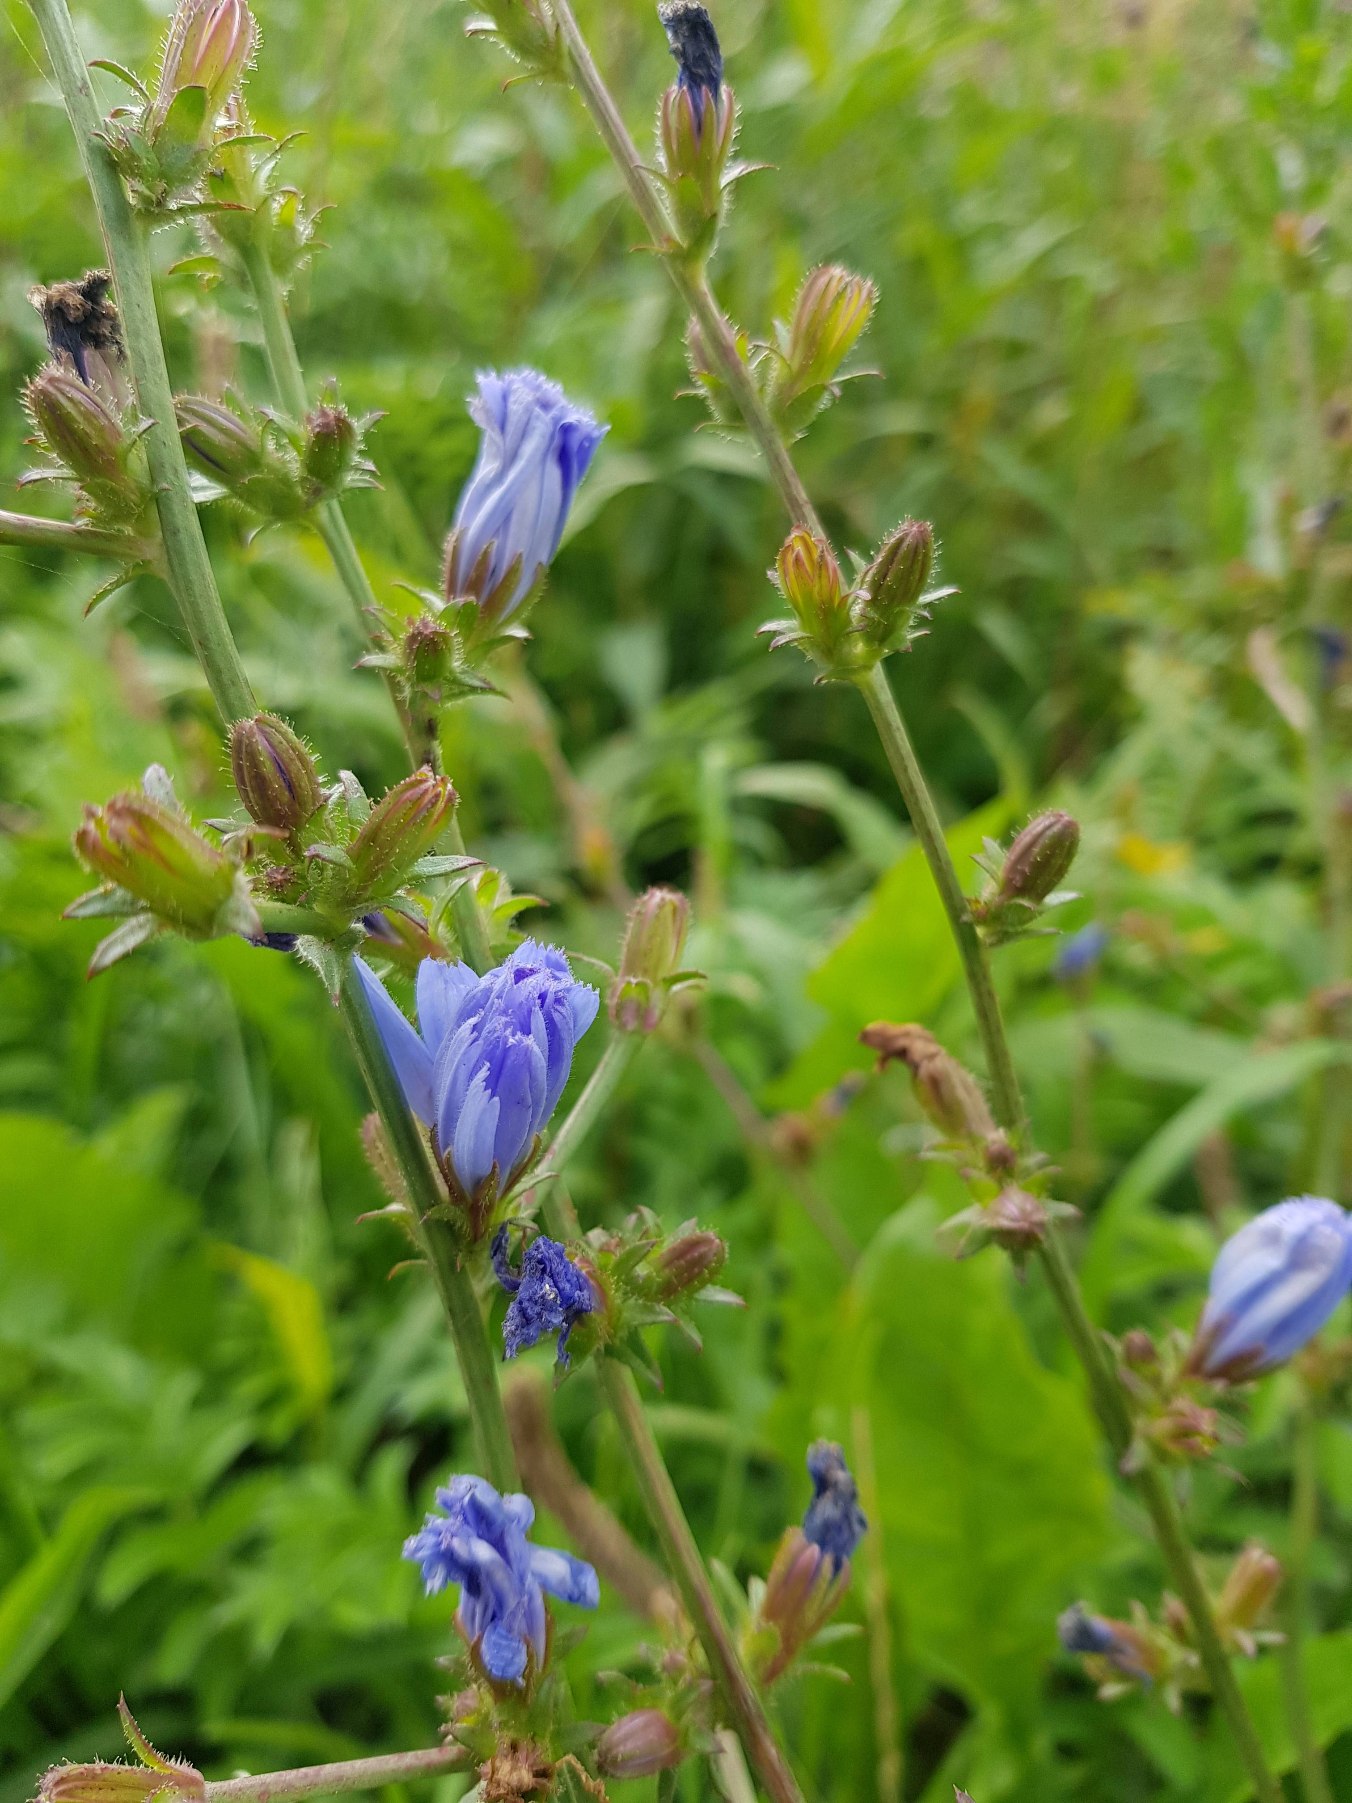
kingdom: Plantae
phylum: Tracheophyta
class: Magnoliopsida
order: Asterales
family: Asteraceae
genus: Cichorium
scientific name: Cichorium intybus
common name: Cikorie
